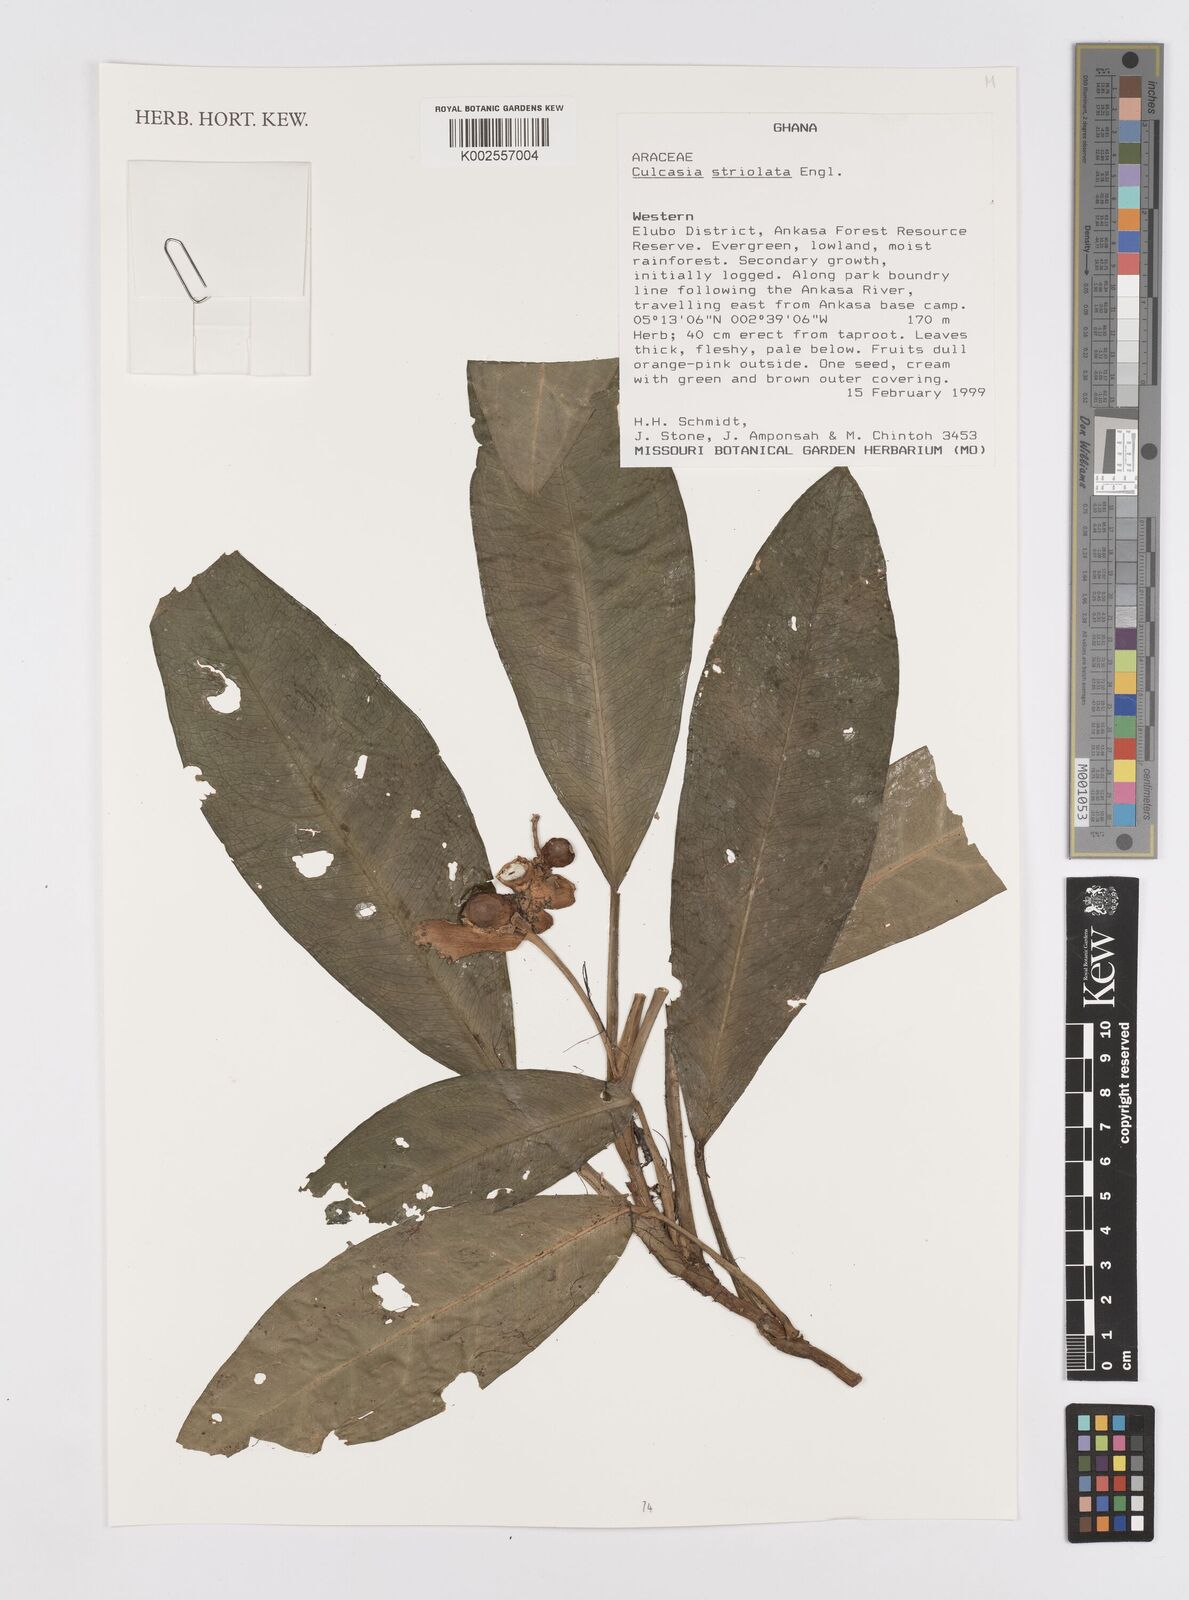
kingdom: Plantae
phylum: Tracheophyta
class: Liliopsida
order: Alismatales
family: Araceae
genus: Culcasia
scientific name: Culcasia striolata
